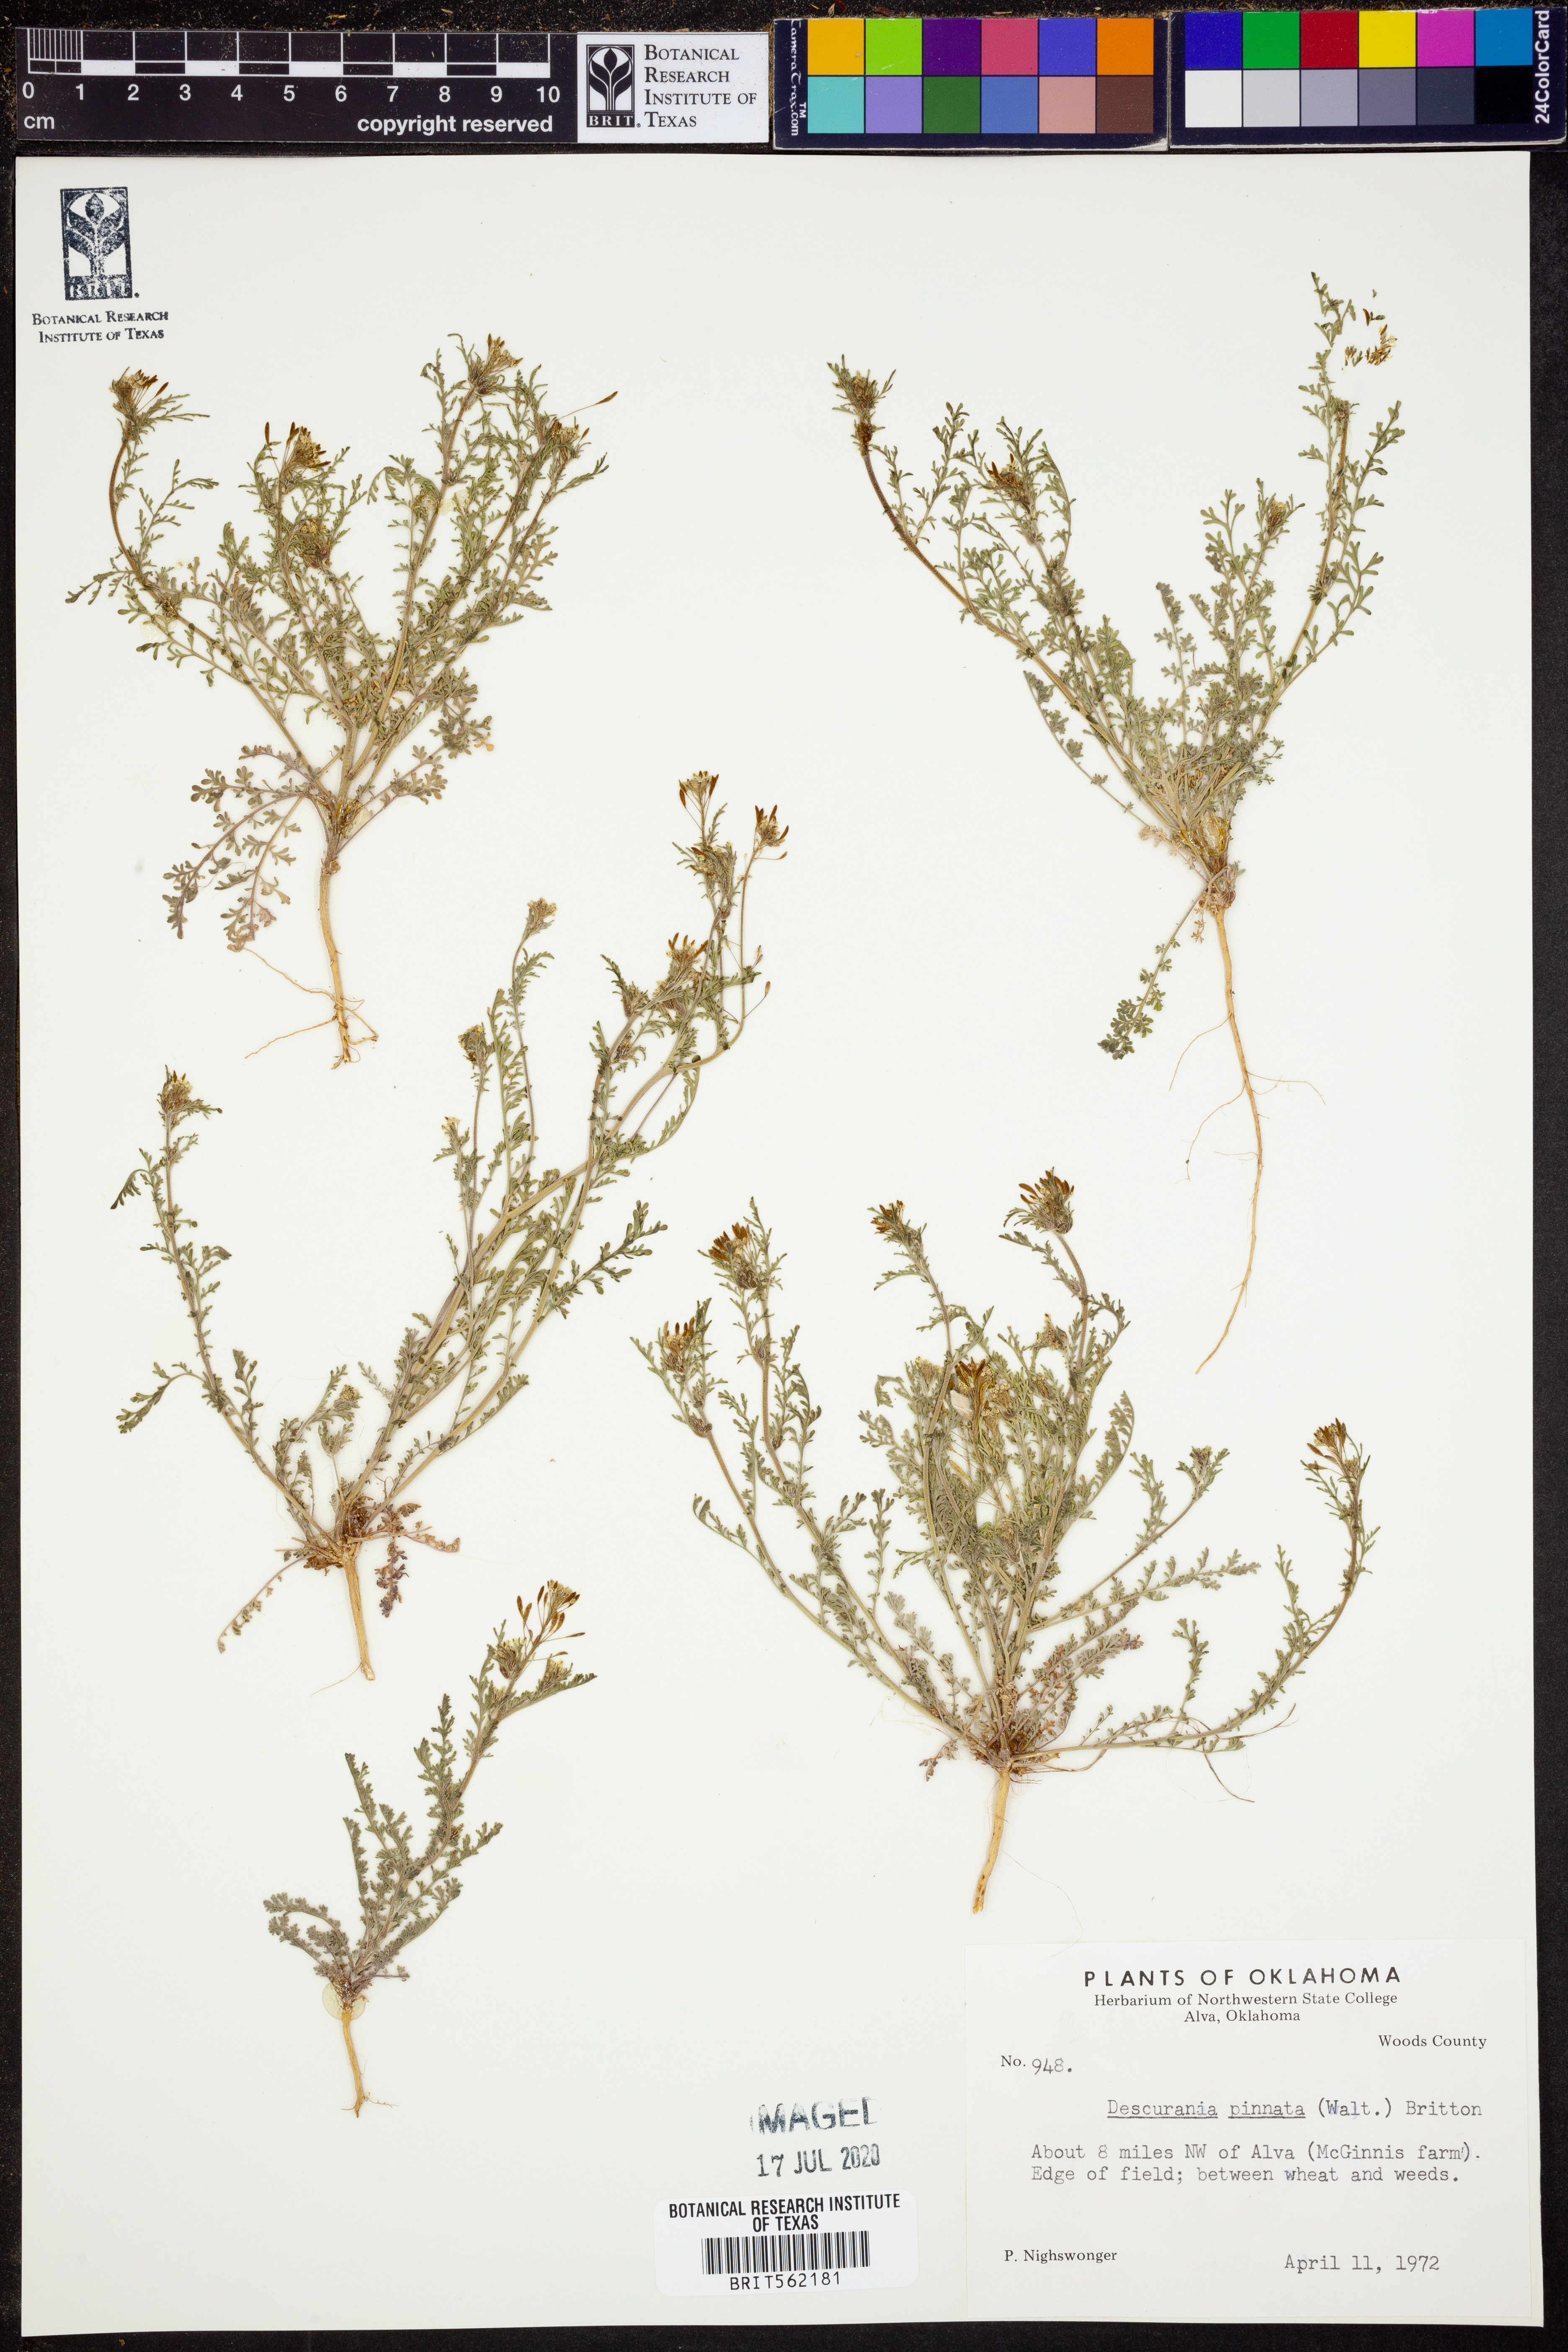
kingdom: Plantae
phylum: Tracheophyta
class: Magnoliopsida
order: Brassicales
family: Brassicaceae
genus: Descurainia
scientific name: Descurainia pinnata
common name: Western tansy mustard
